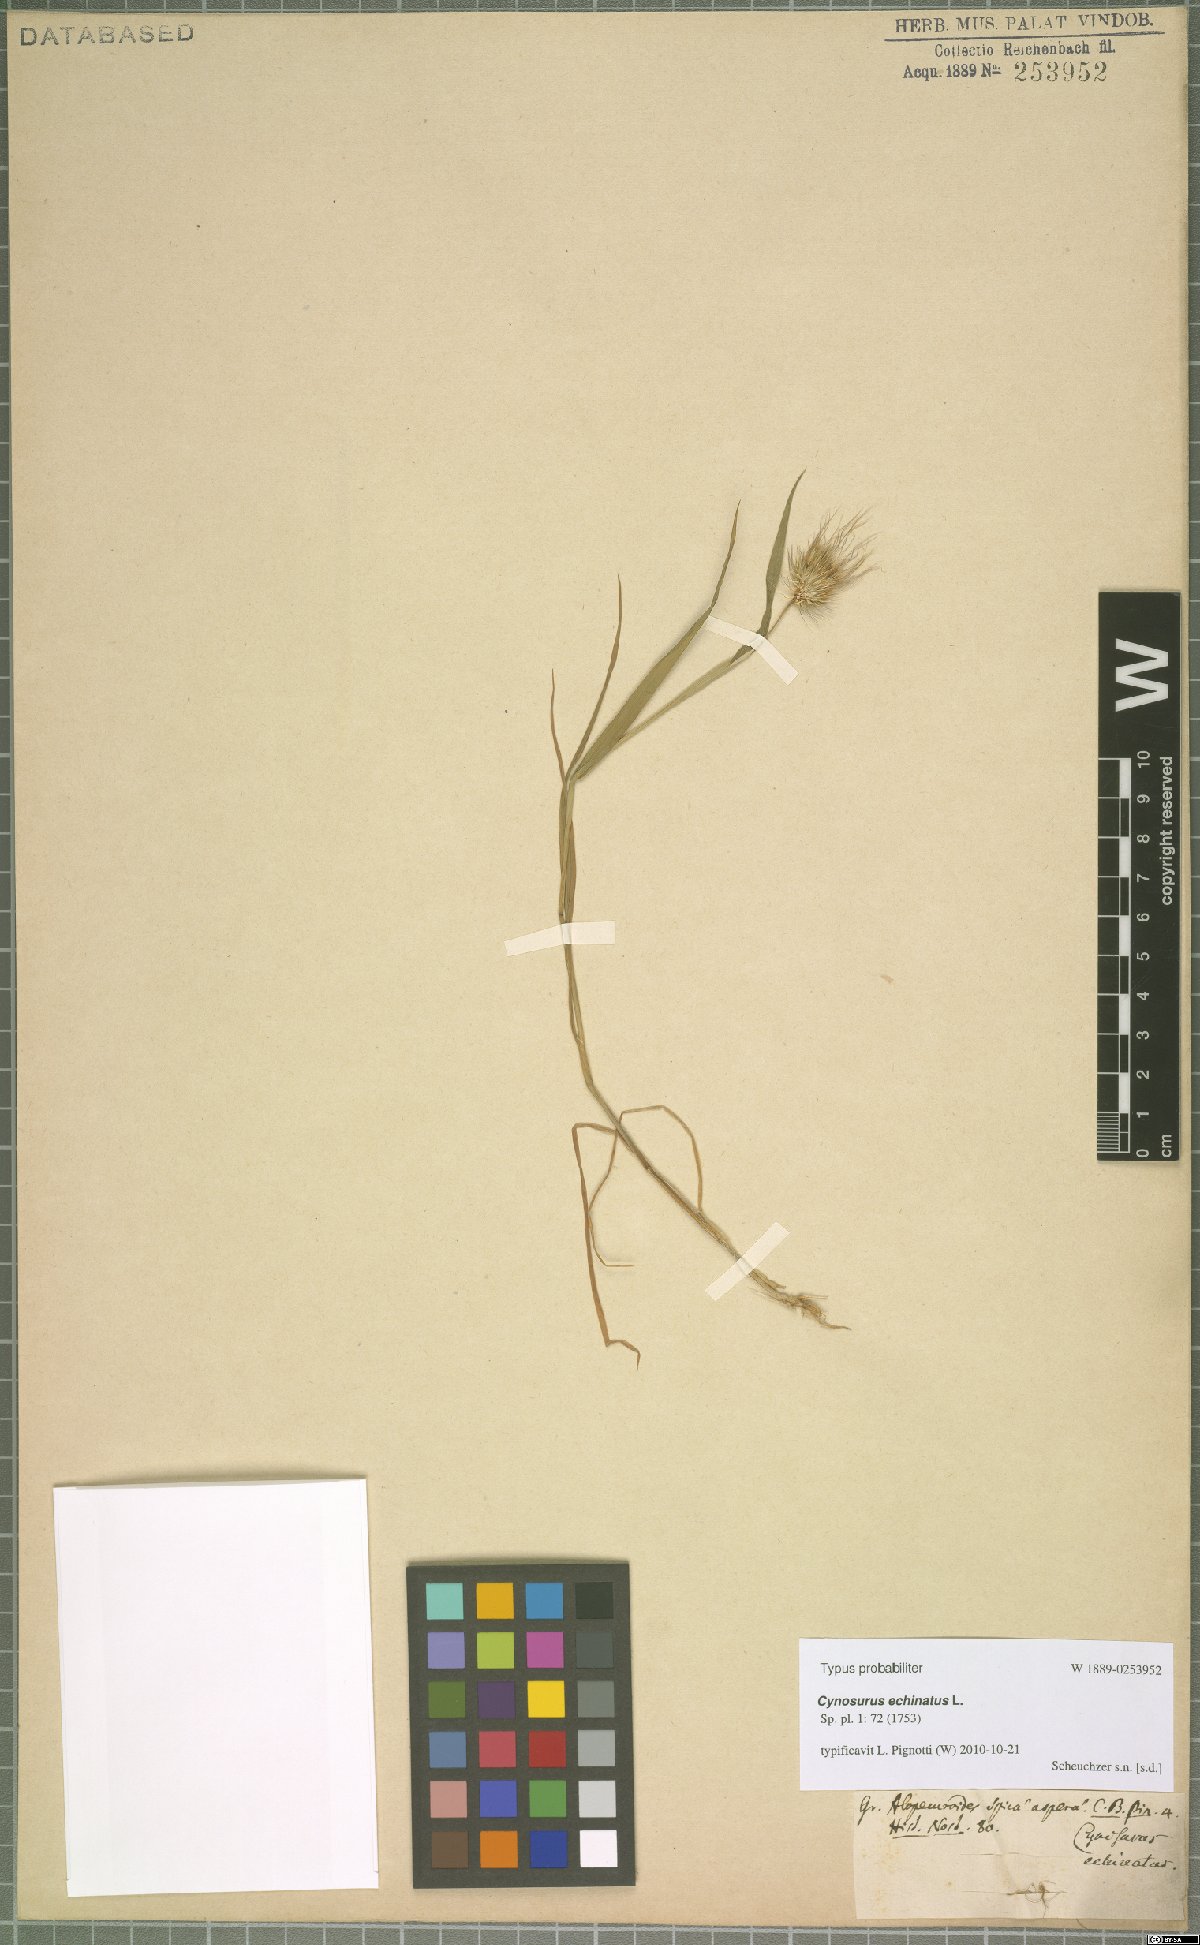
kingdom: Plantae
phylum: Tracheophyta
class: Liliopsida
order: Poales
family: Poaceae
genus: Cynosurus
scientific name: Cynosurus echinatus
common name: Rough dog's-tail
